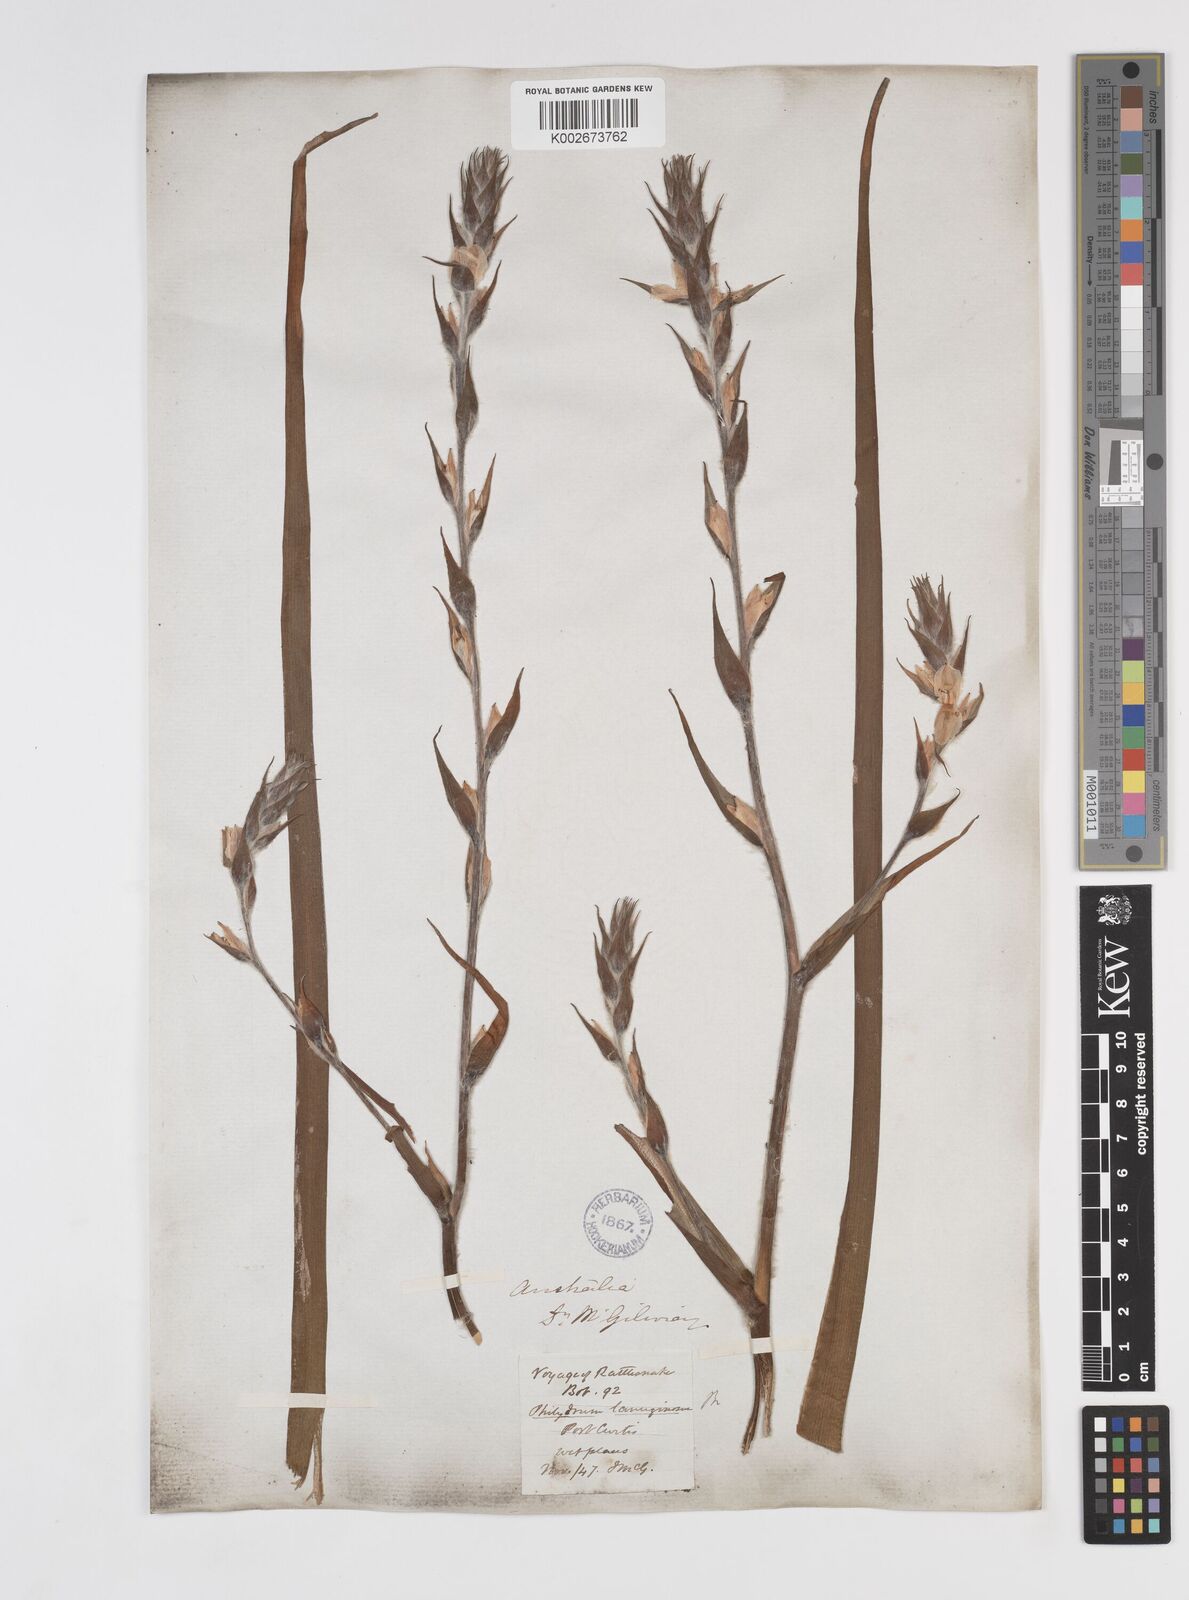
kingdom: Plantae
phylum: Tracheophyta
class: Liliopsida
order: Commelinales
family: Philydraceae
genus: Philydrum
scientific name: Philydrum lanuginosum
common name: Woolly frog's mouth
